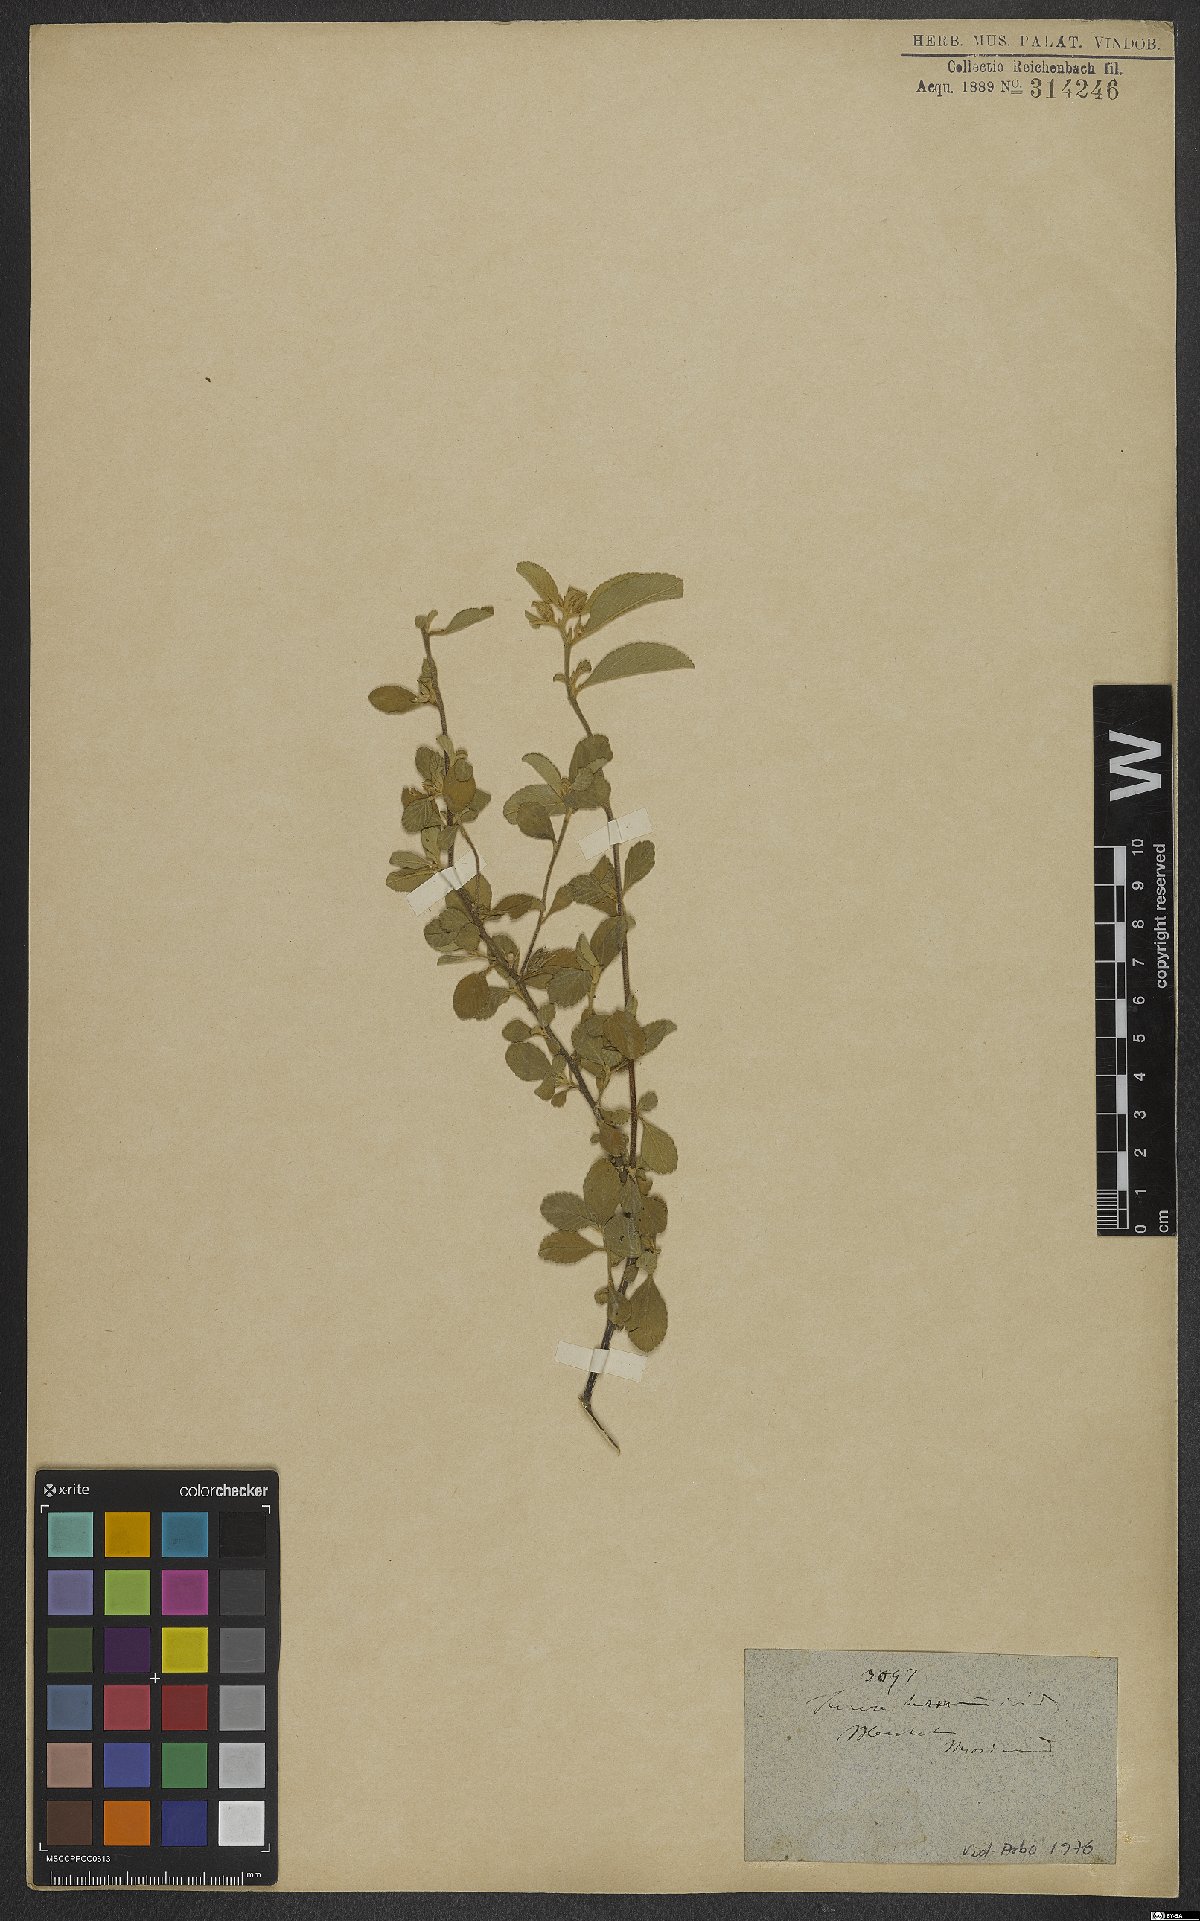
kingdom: Plantae
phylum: Tracheophyta
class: Magnoliopsida
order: Malpighiales
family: Turneraceae
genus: Turnera
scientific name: Turnera hermannioides
